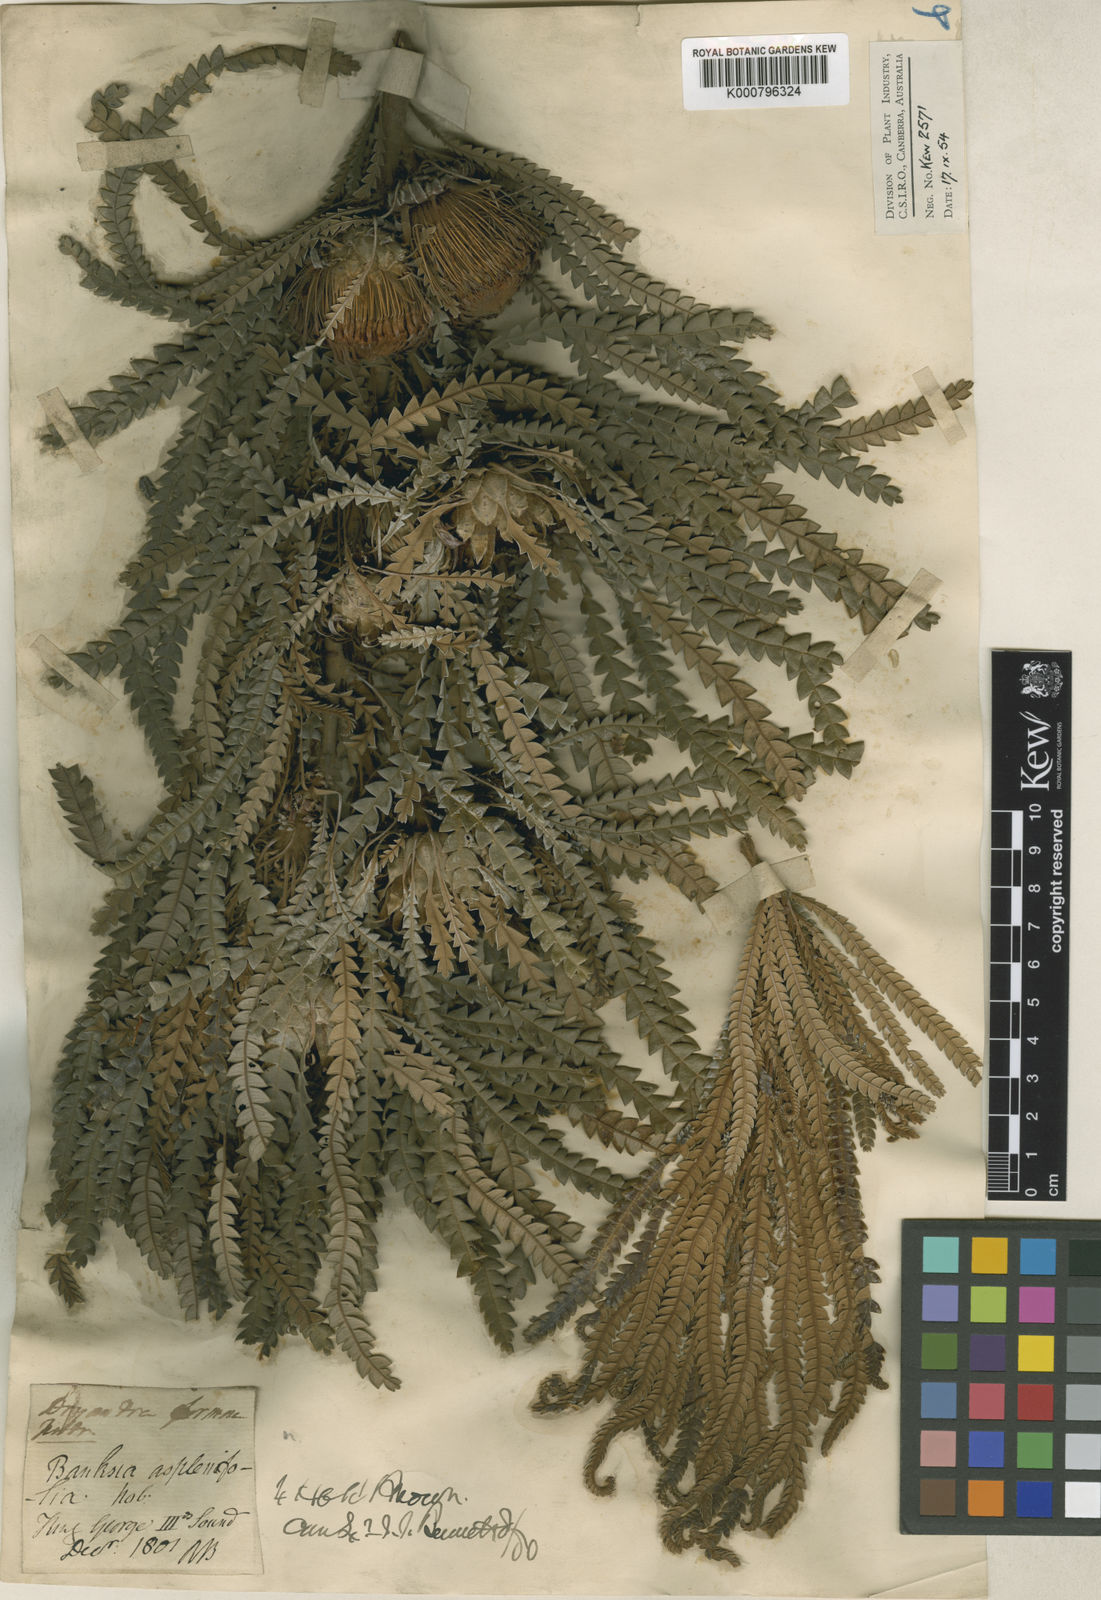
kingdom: Plantae
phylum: Tracheophyta
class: Magnoliopsida
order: Proteales
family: Proteaceae
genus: Banksia
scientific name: Banksia formosa
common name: Showy dryandra
